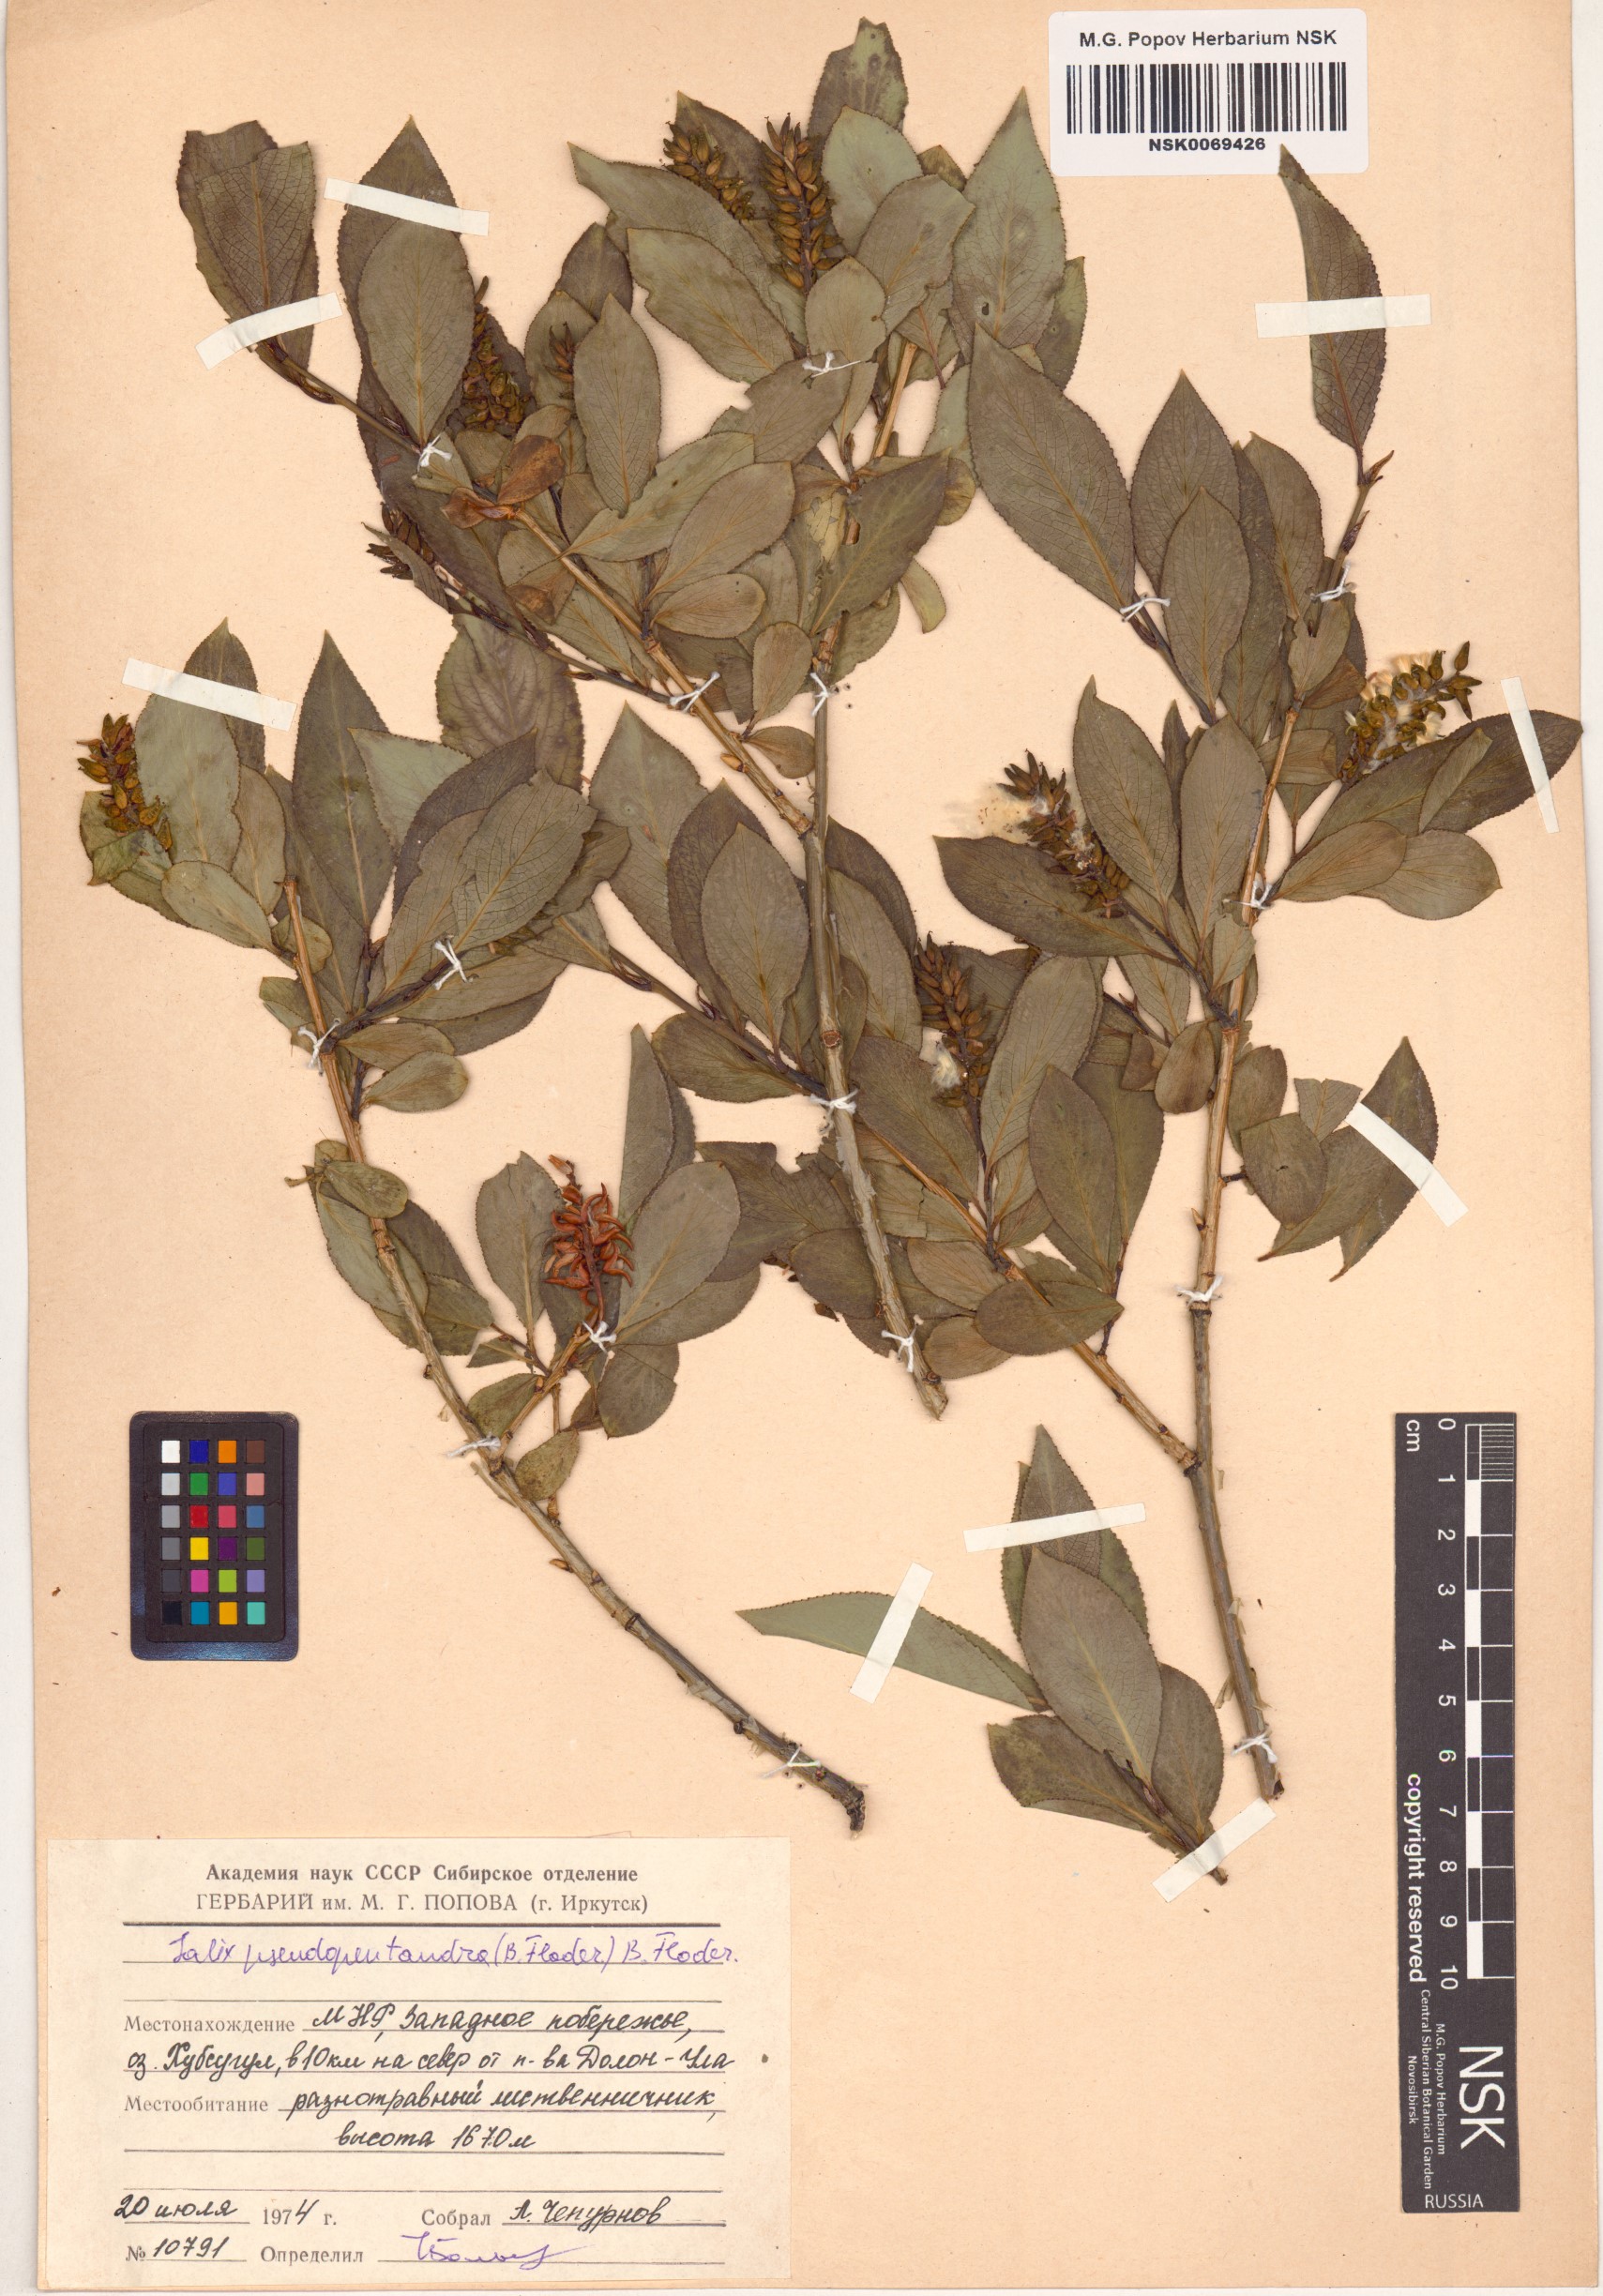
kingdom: Plantae
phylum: Tracheophyta
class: Magnoliopsida
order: Malpighiales
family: Salicaceae
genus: Salix
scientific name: Salix pseudopentandra
